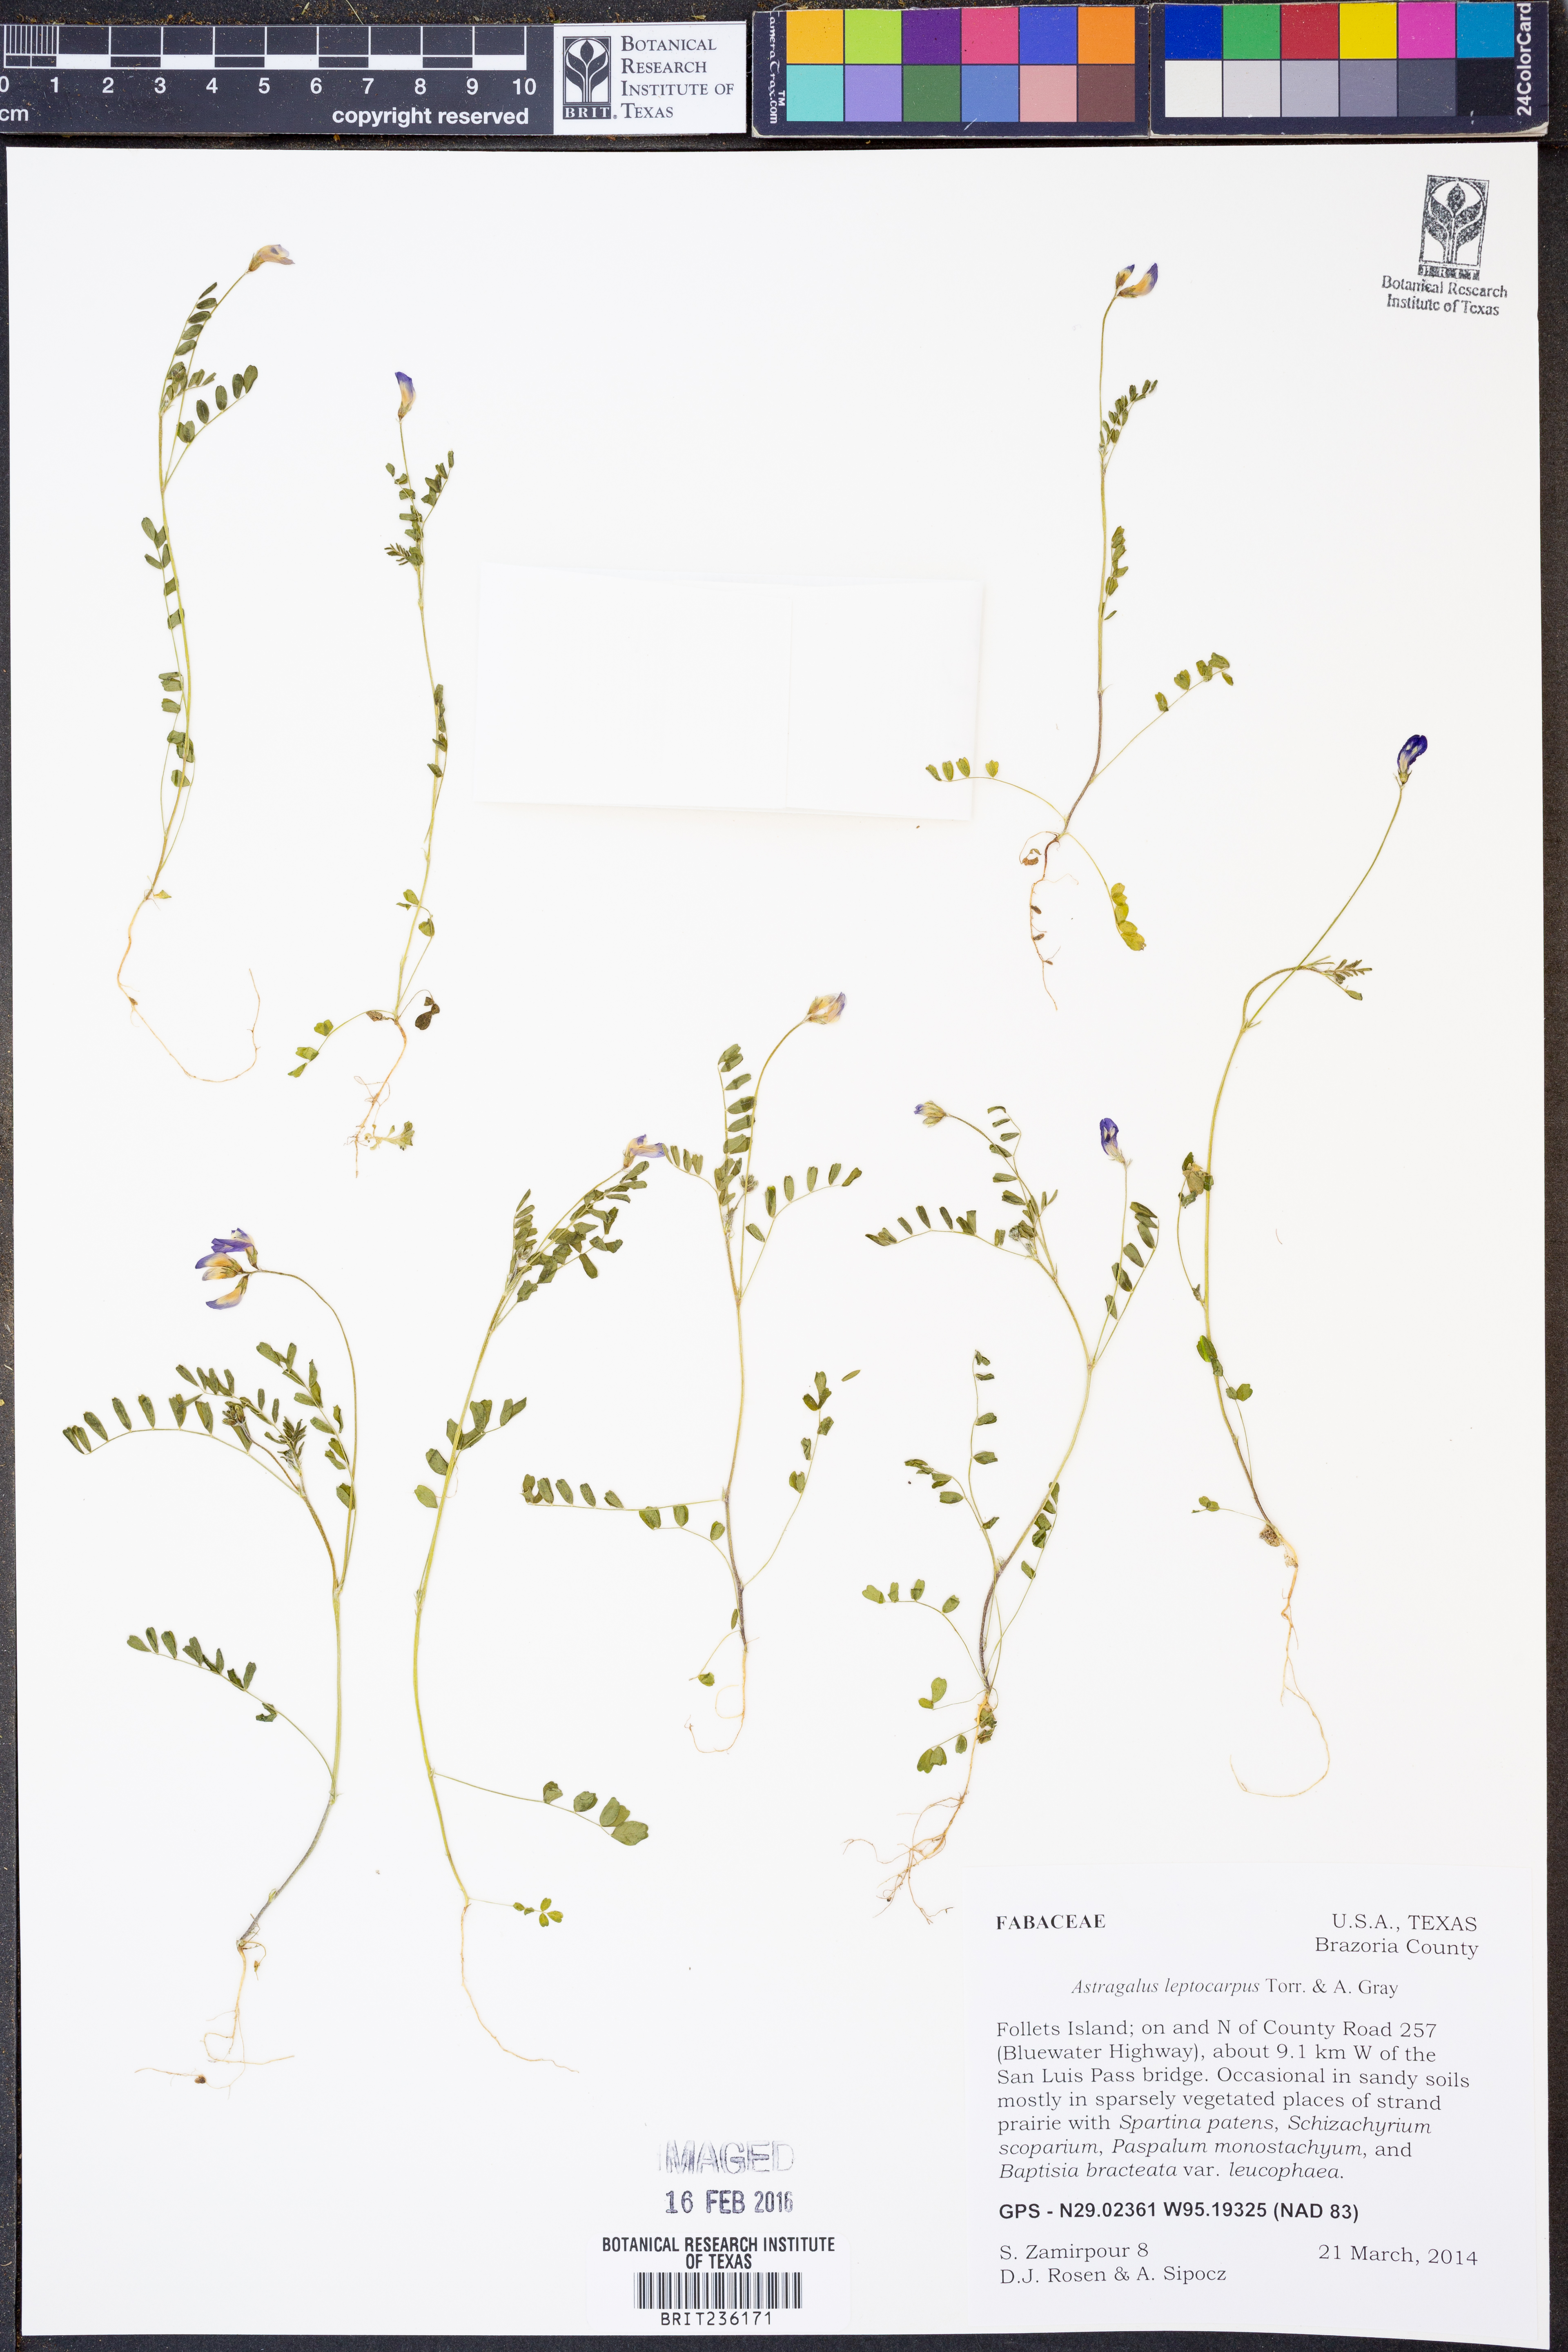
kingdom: Plantae
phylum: Tracheophyta
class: Magnoliopsida
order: Fabales
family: Fabaceae
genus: Astragalus
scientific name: Astragalus leptocarpus
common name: Bodkin milk-vetch
